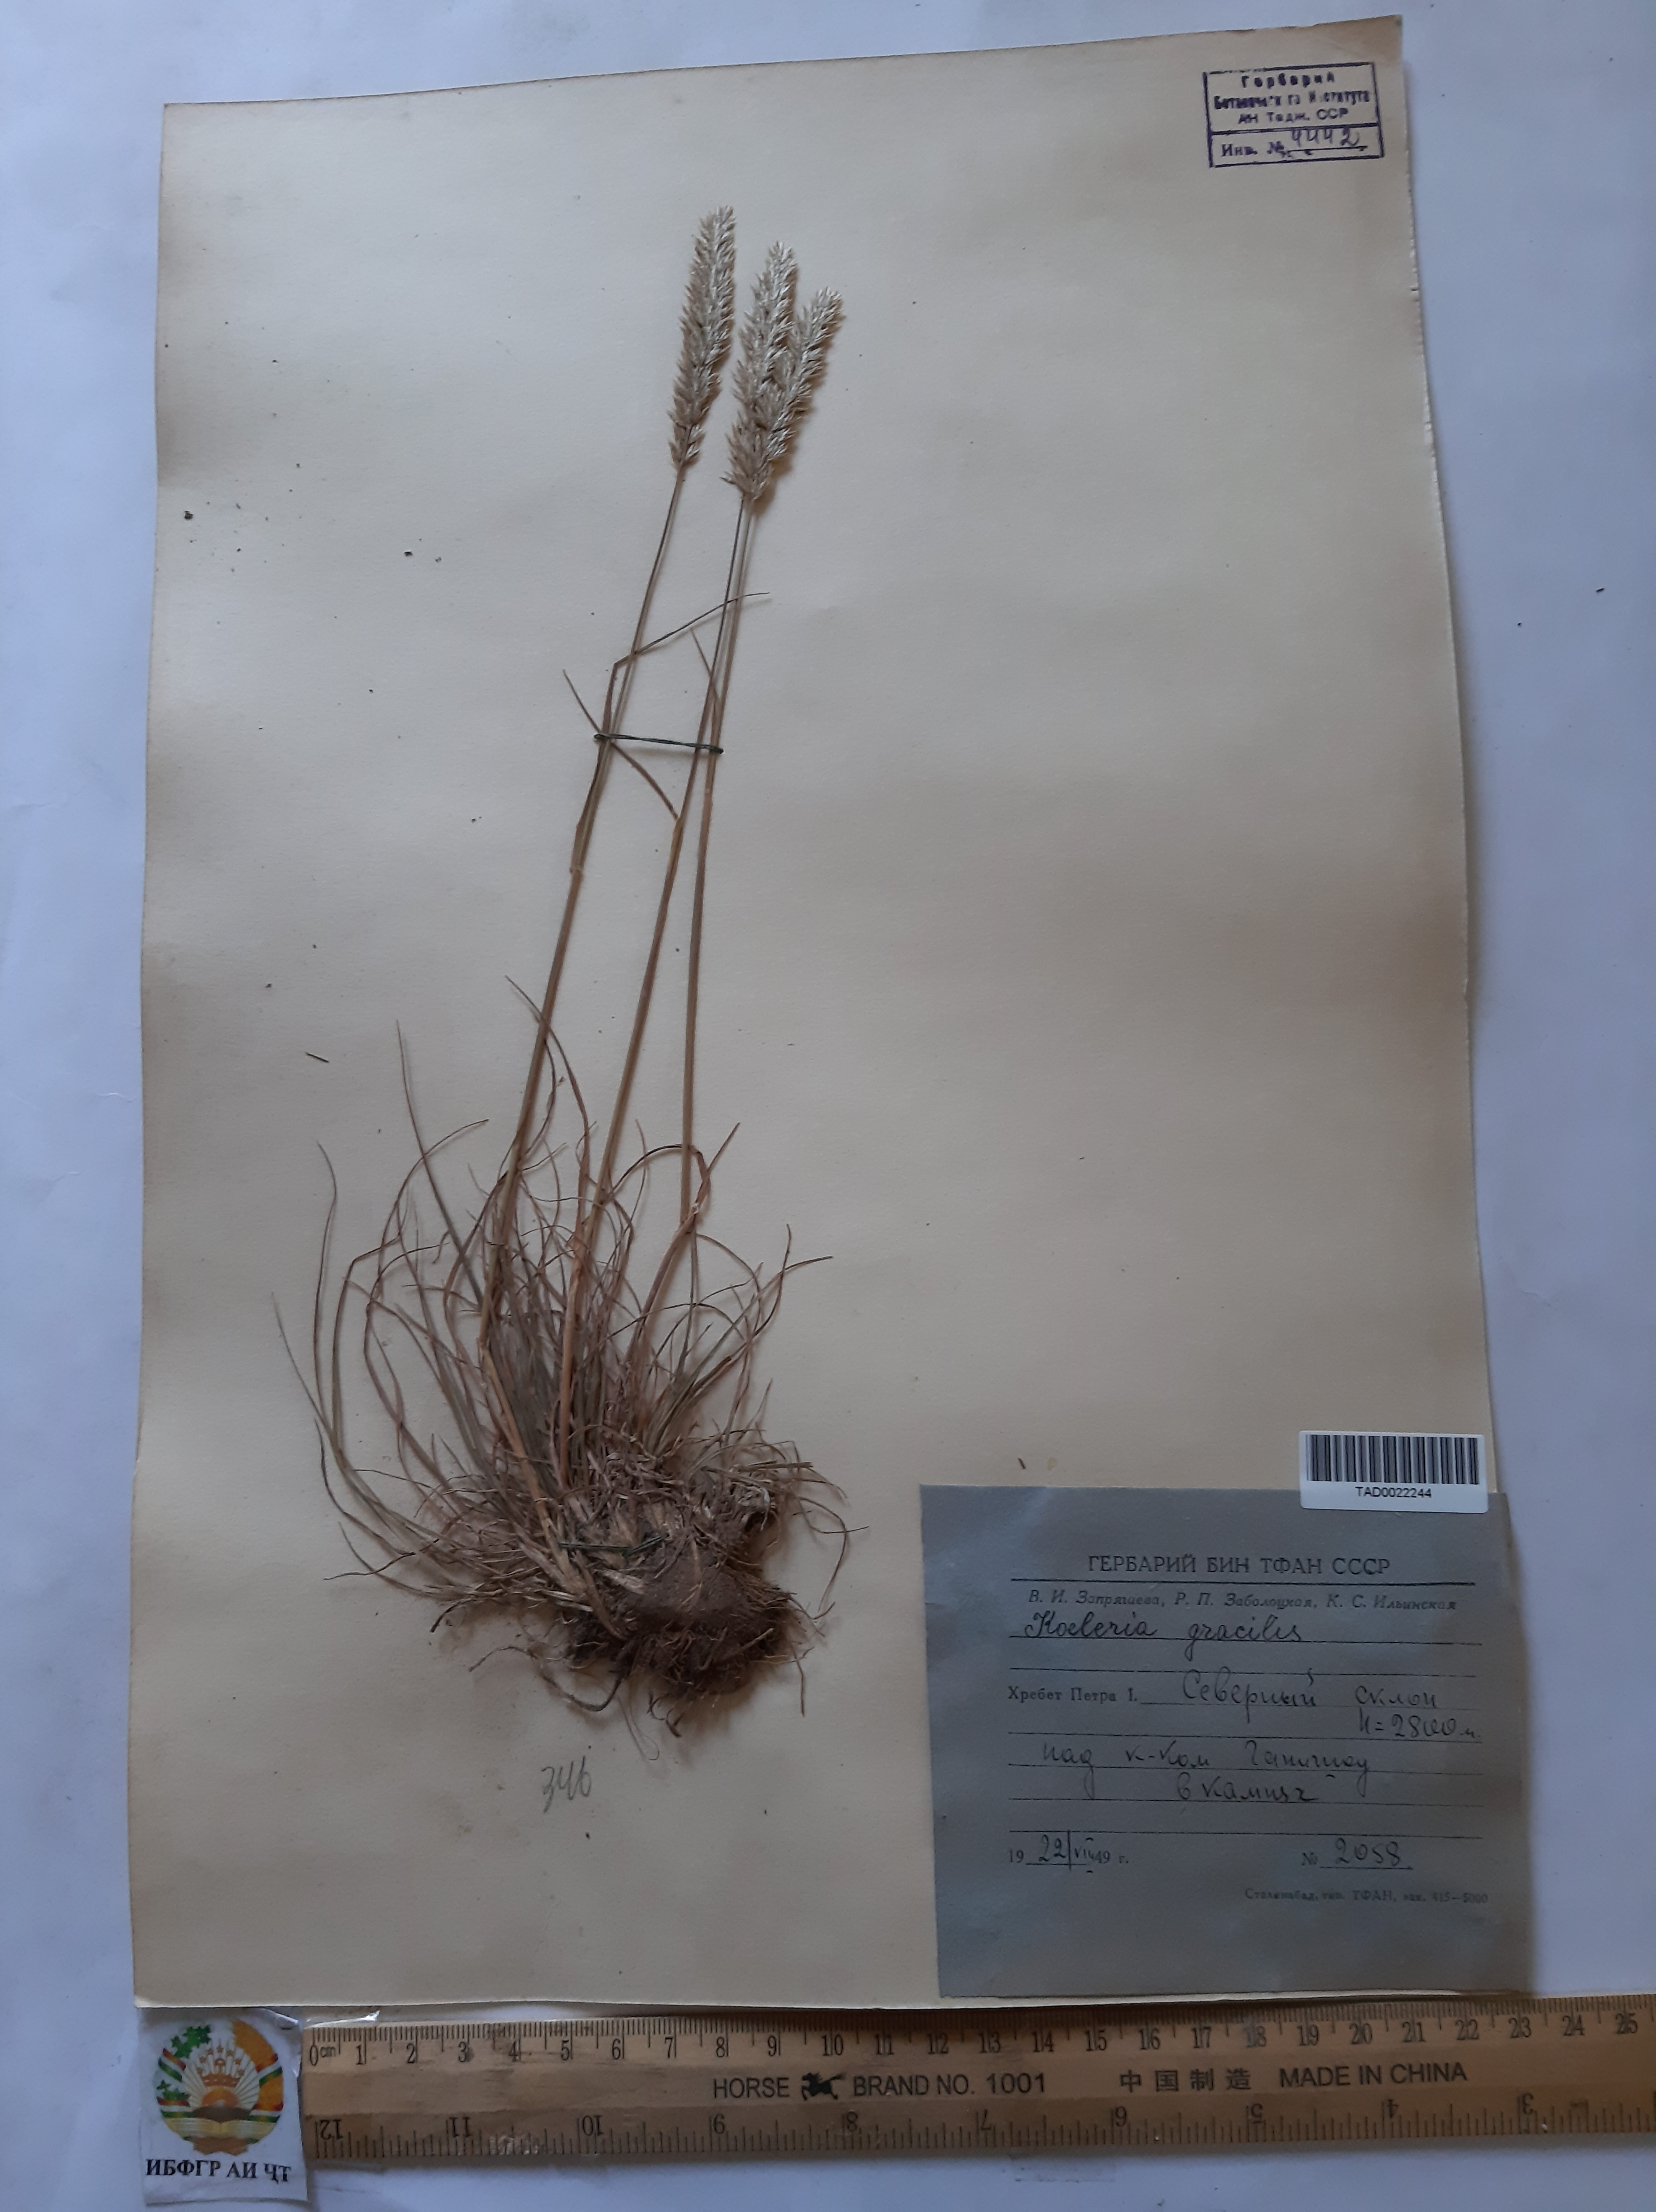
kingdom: Plantae
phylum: Tracheophyta
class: Liliopsida
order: Poales
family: Poaceae
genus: Koeleria
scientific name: Koeleria macrantha
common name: Crested hair-grass
